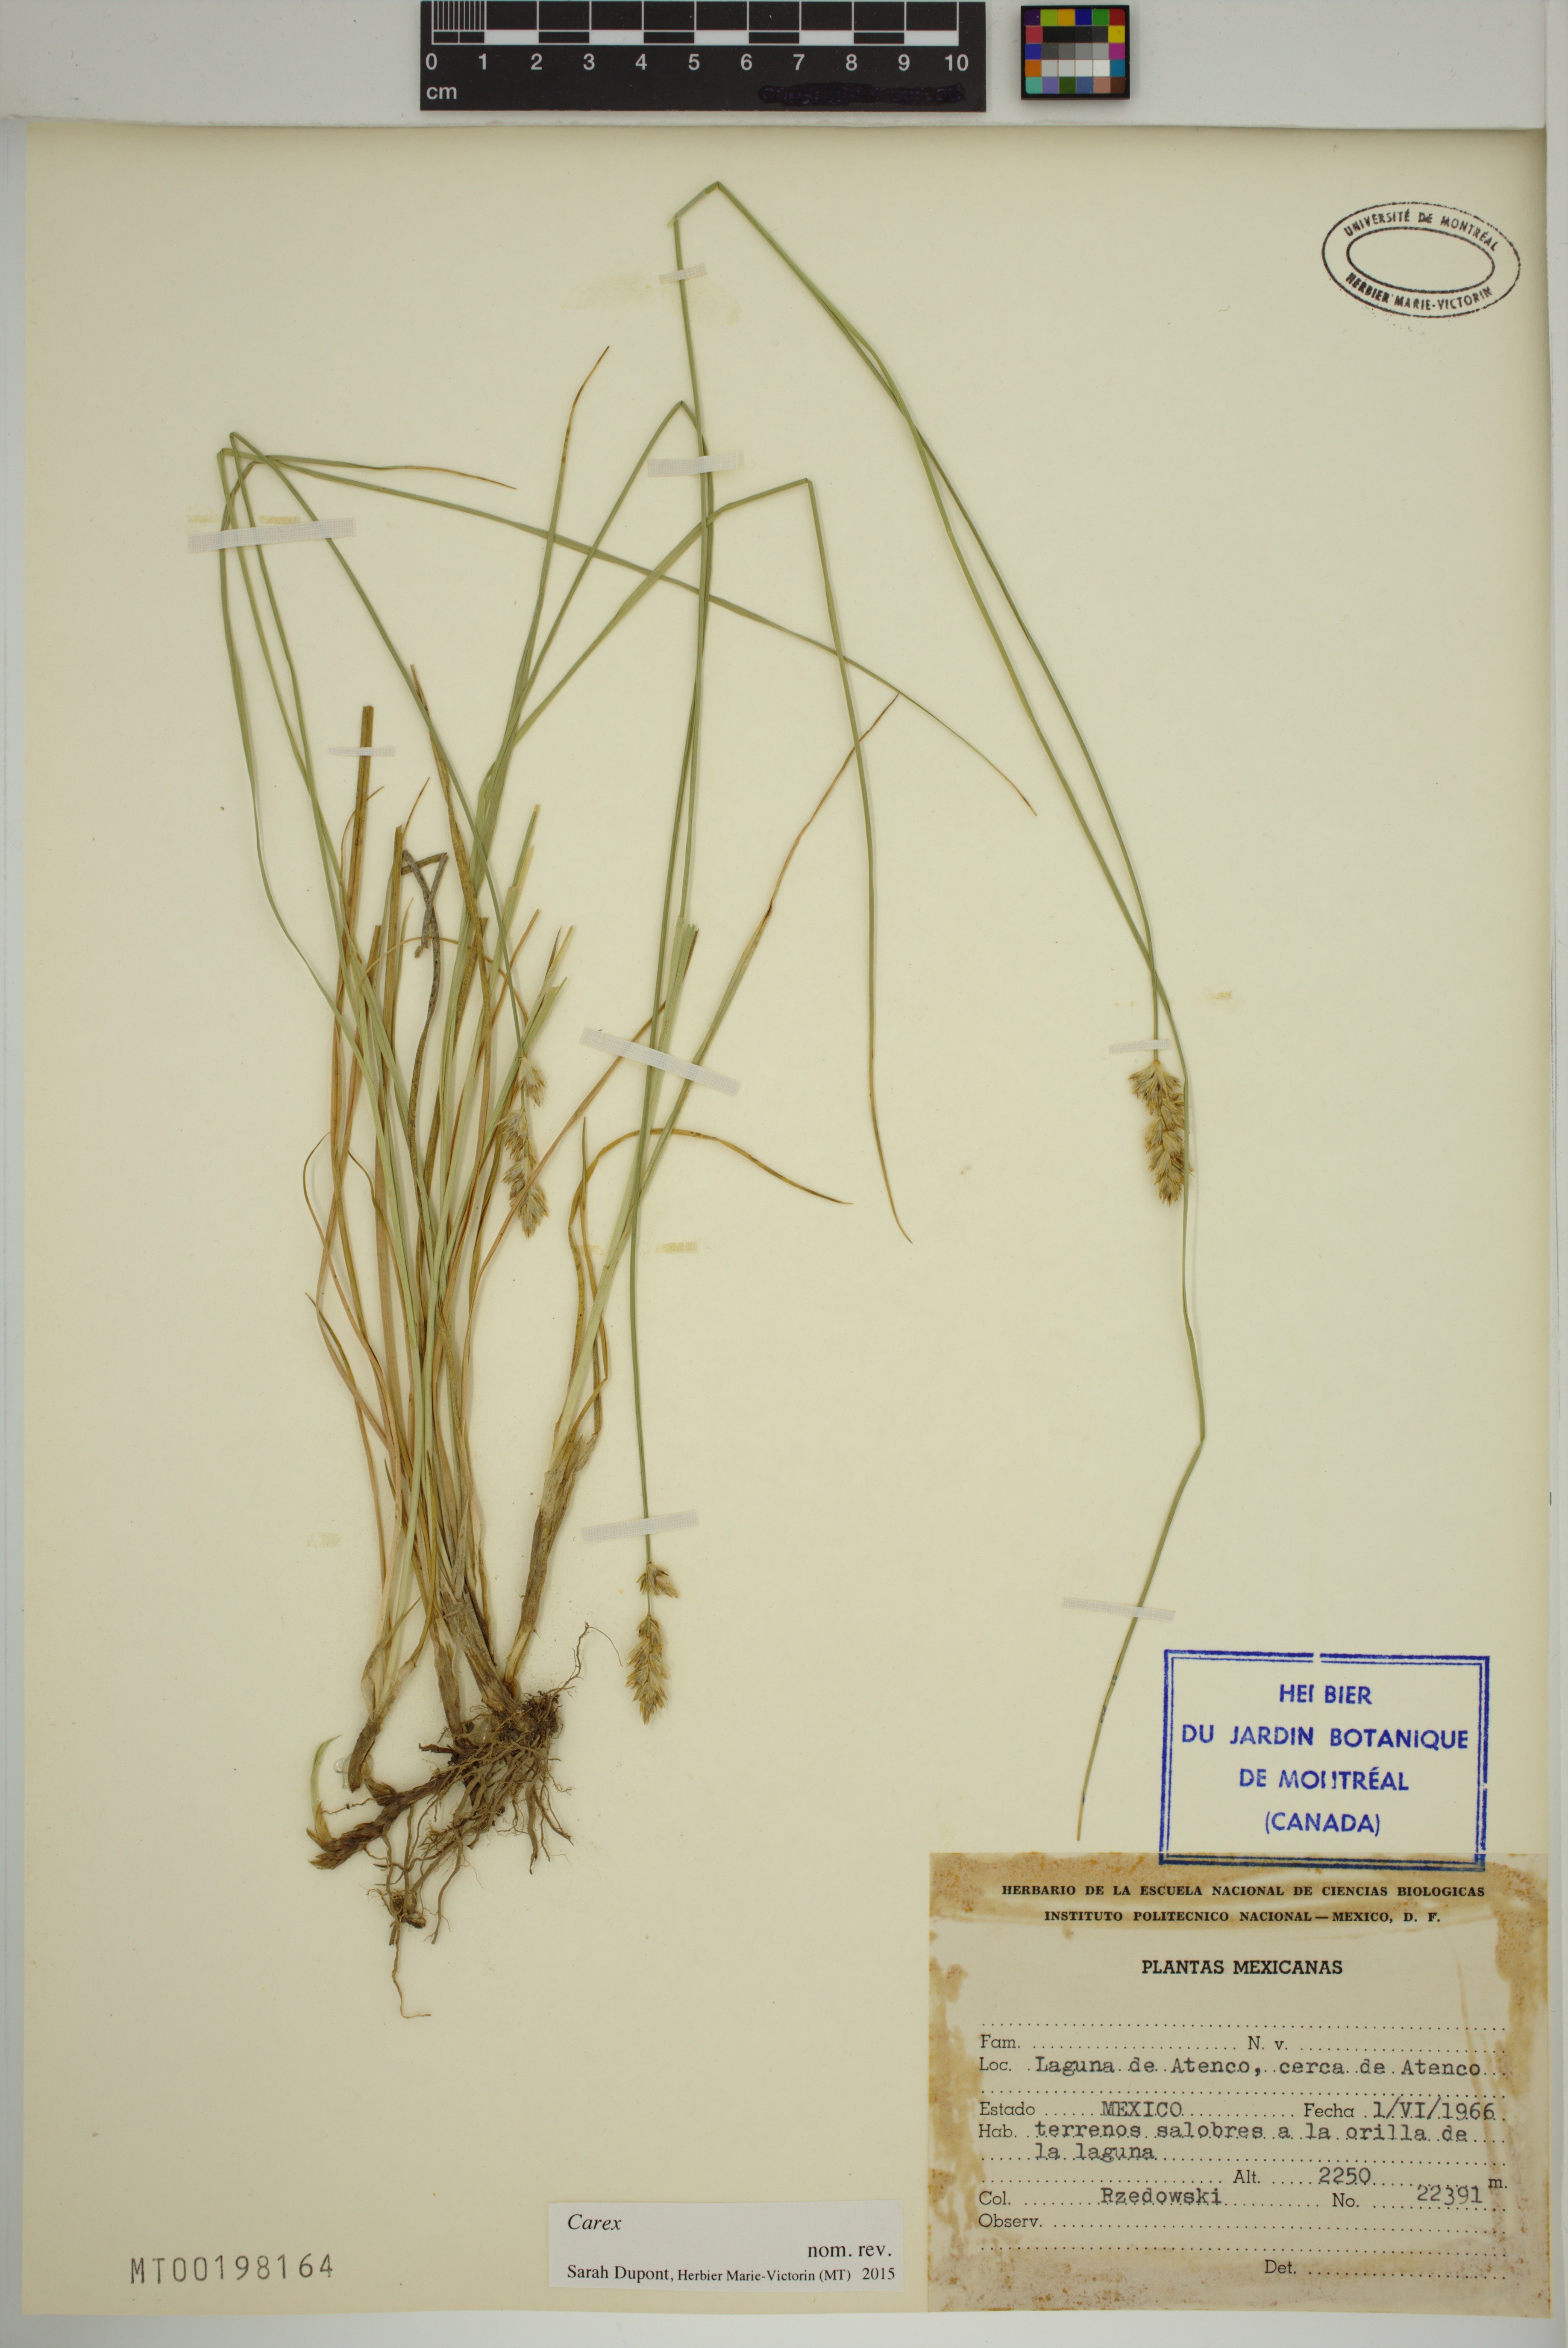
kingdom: Plantae
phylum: Tracheophyta
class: Liliopsida
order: Poales
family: Cyperaceae
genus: Carex
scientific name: Carex
